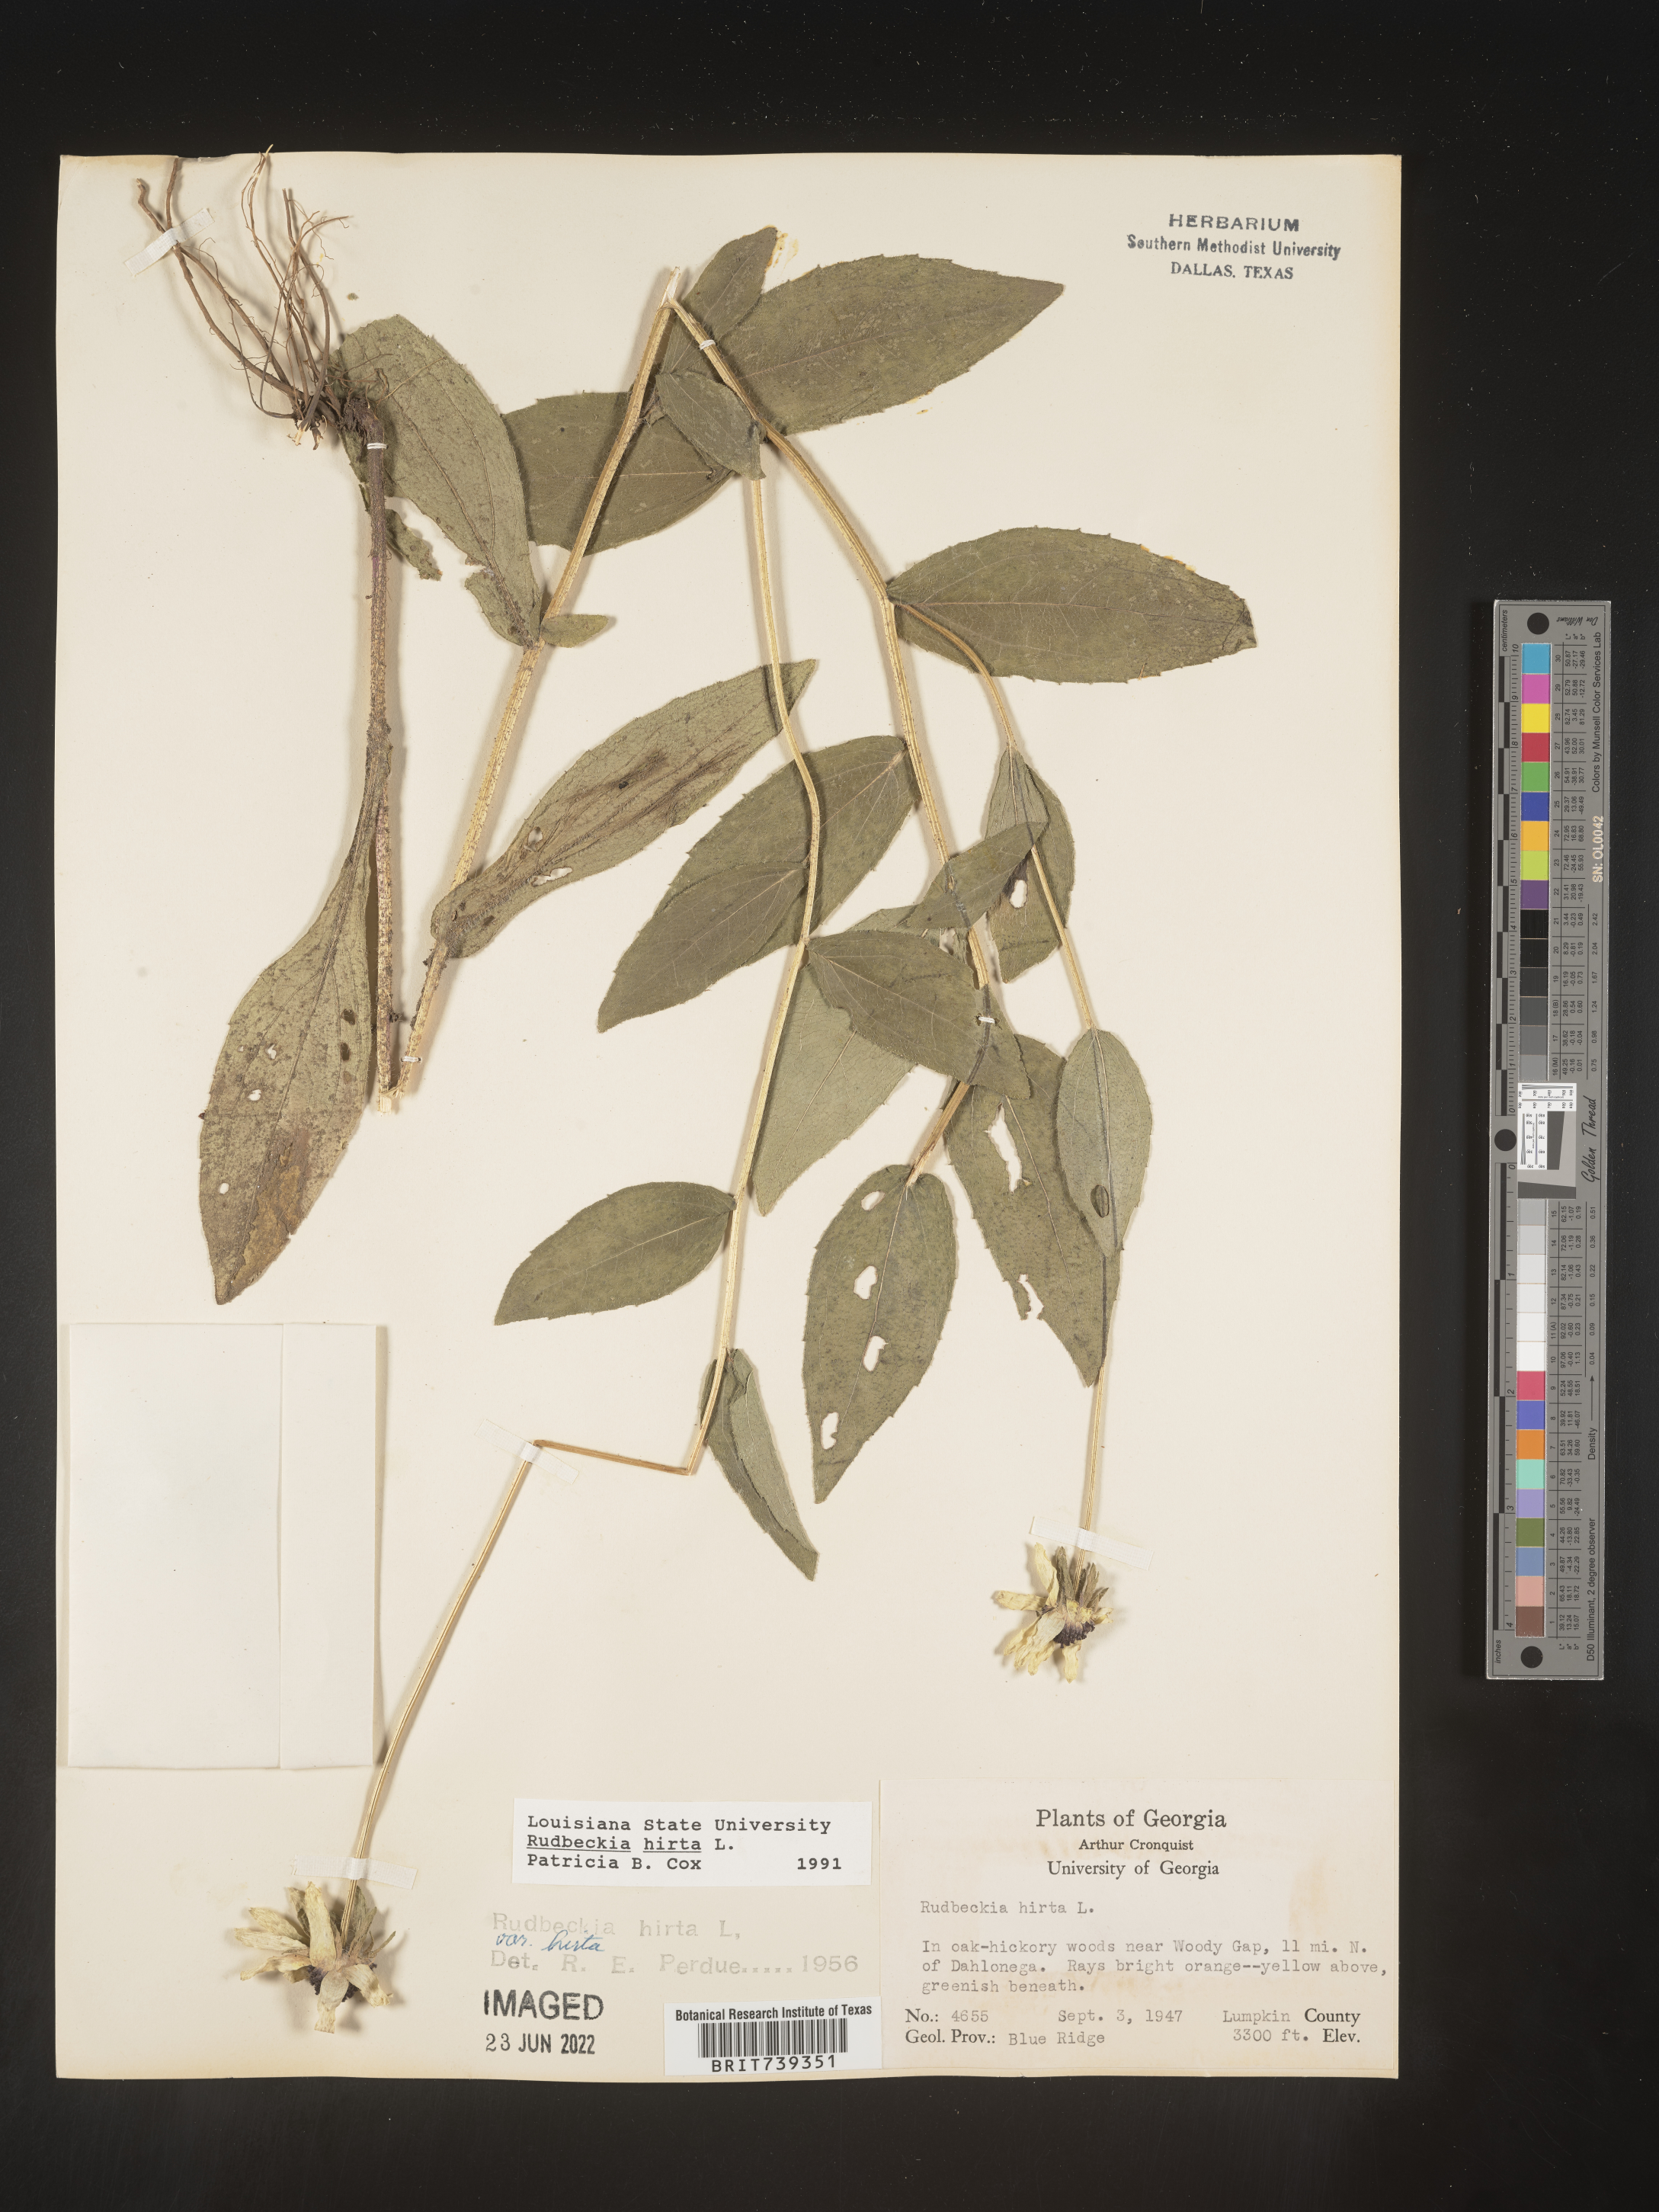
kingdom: Plantae
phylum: Tracheophyta
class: Magnoliopsida
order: Asterales
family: Asteraceae
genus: Rudbeckia
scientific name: Rudbeckia hirta
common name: Black-eyed-susan
